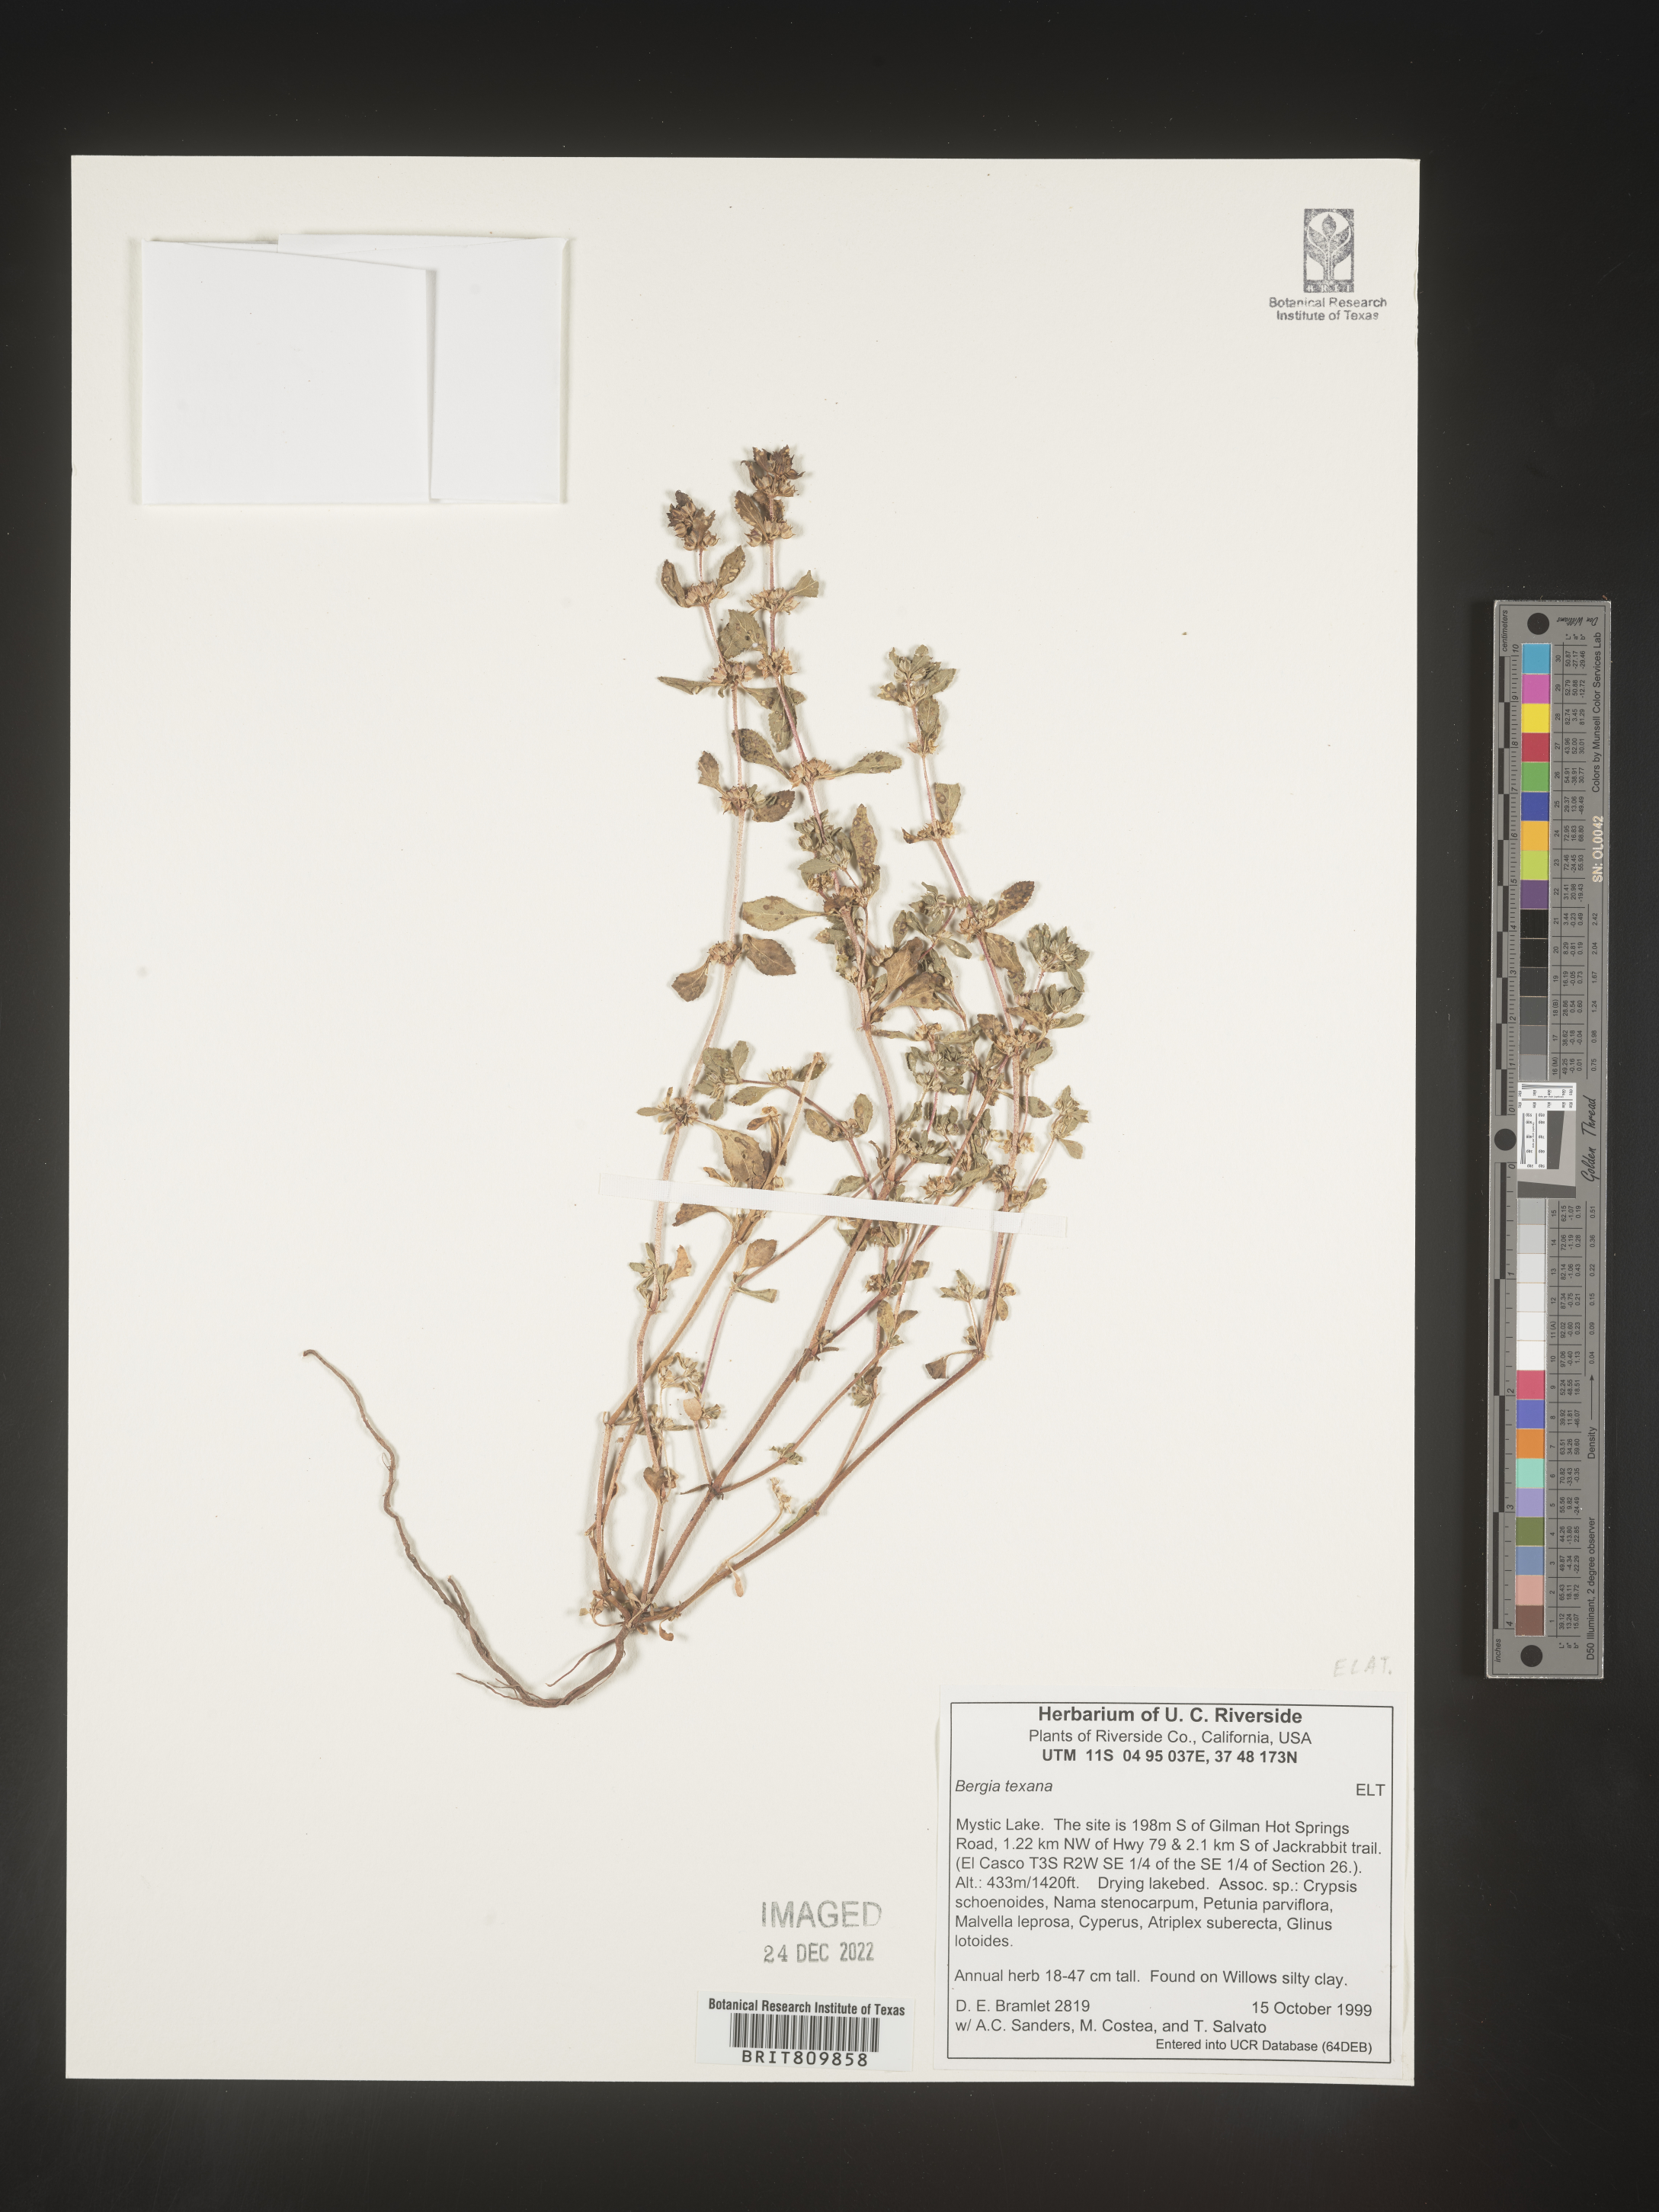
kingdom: Plantae
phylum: Tracheophyta
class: Magnoliopsida
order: Malpighiales
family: Elatinaceae
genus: Bergia
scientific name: Bergia
